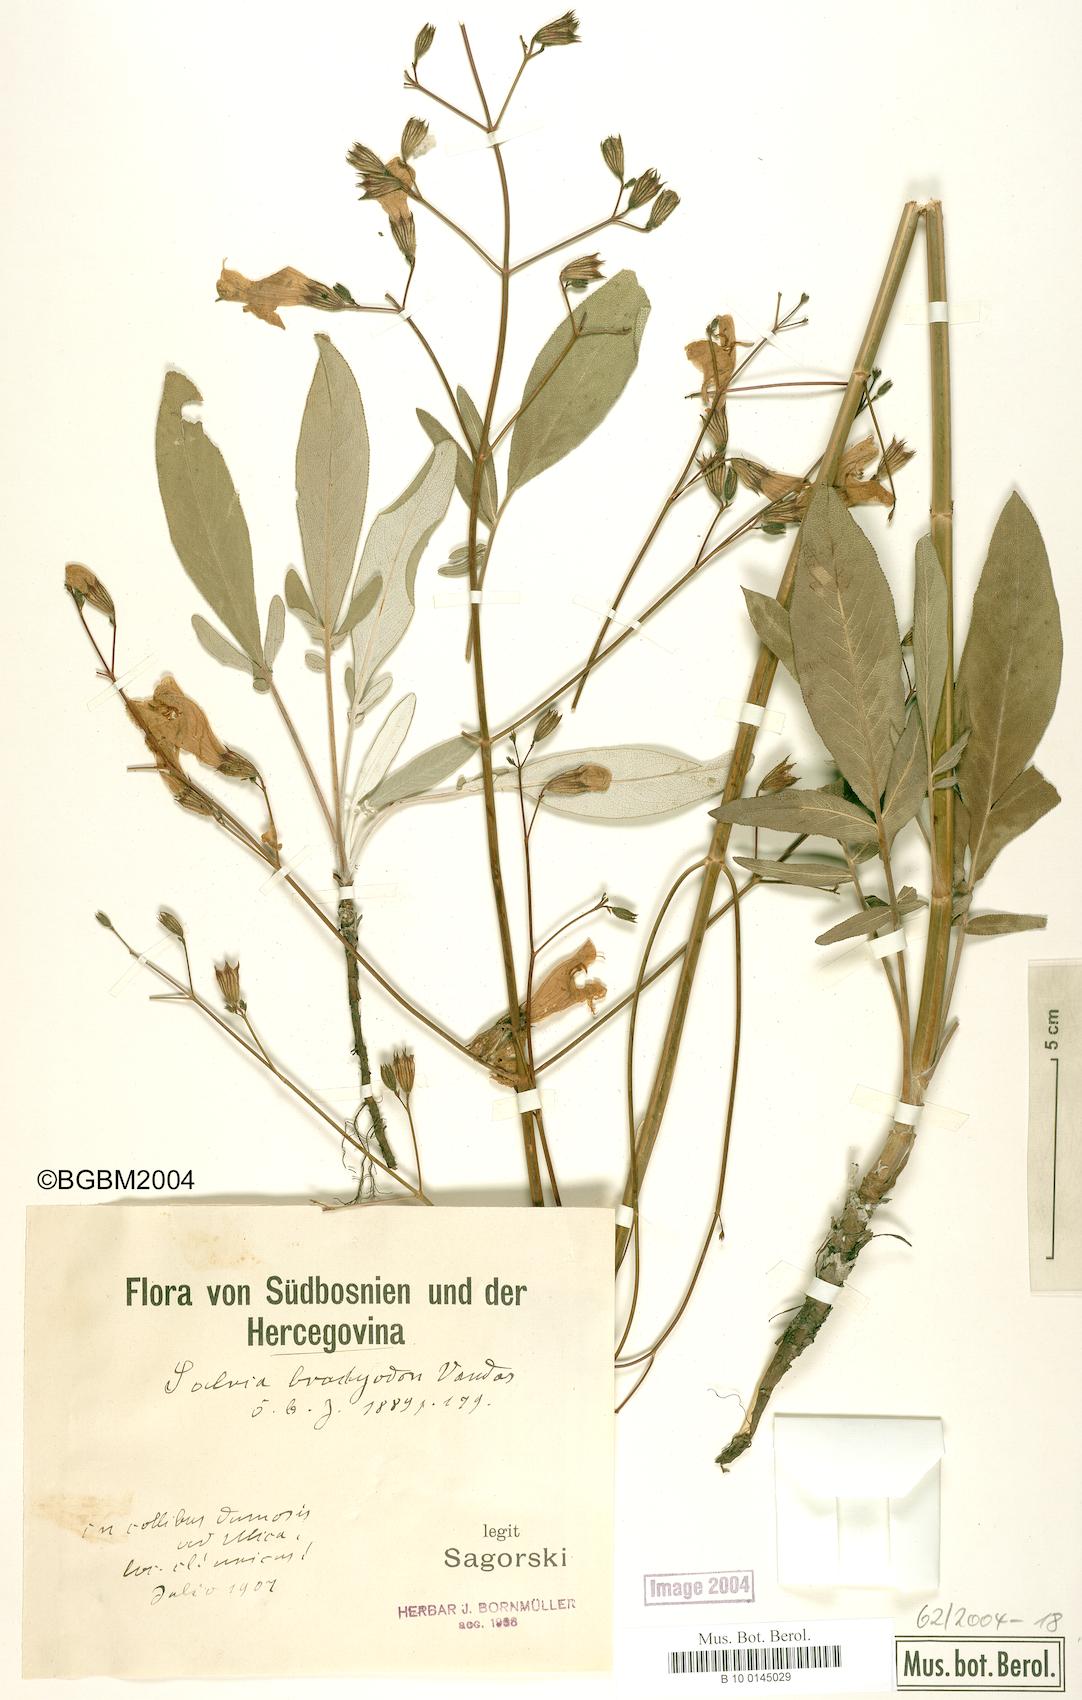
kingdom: Plantae
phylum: Tracheophyta
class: Magnoliopsida
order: Lamiales
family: Lamiaceae
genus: Salvia
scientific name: Salvia brachyodon
